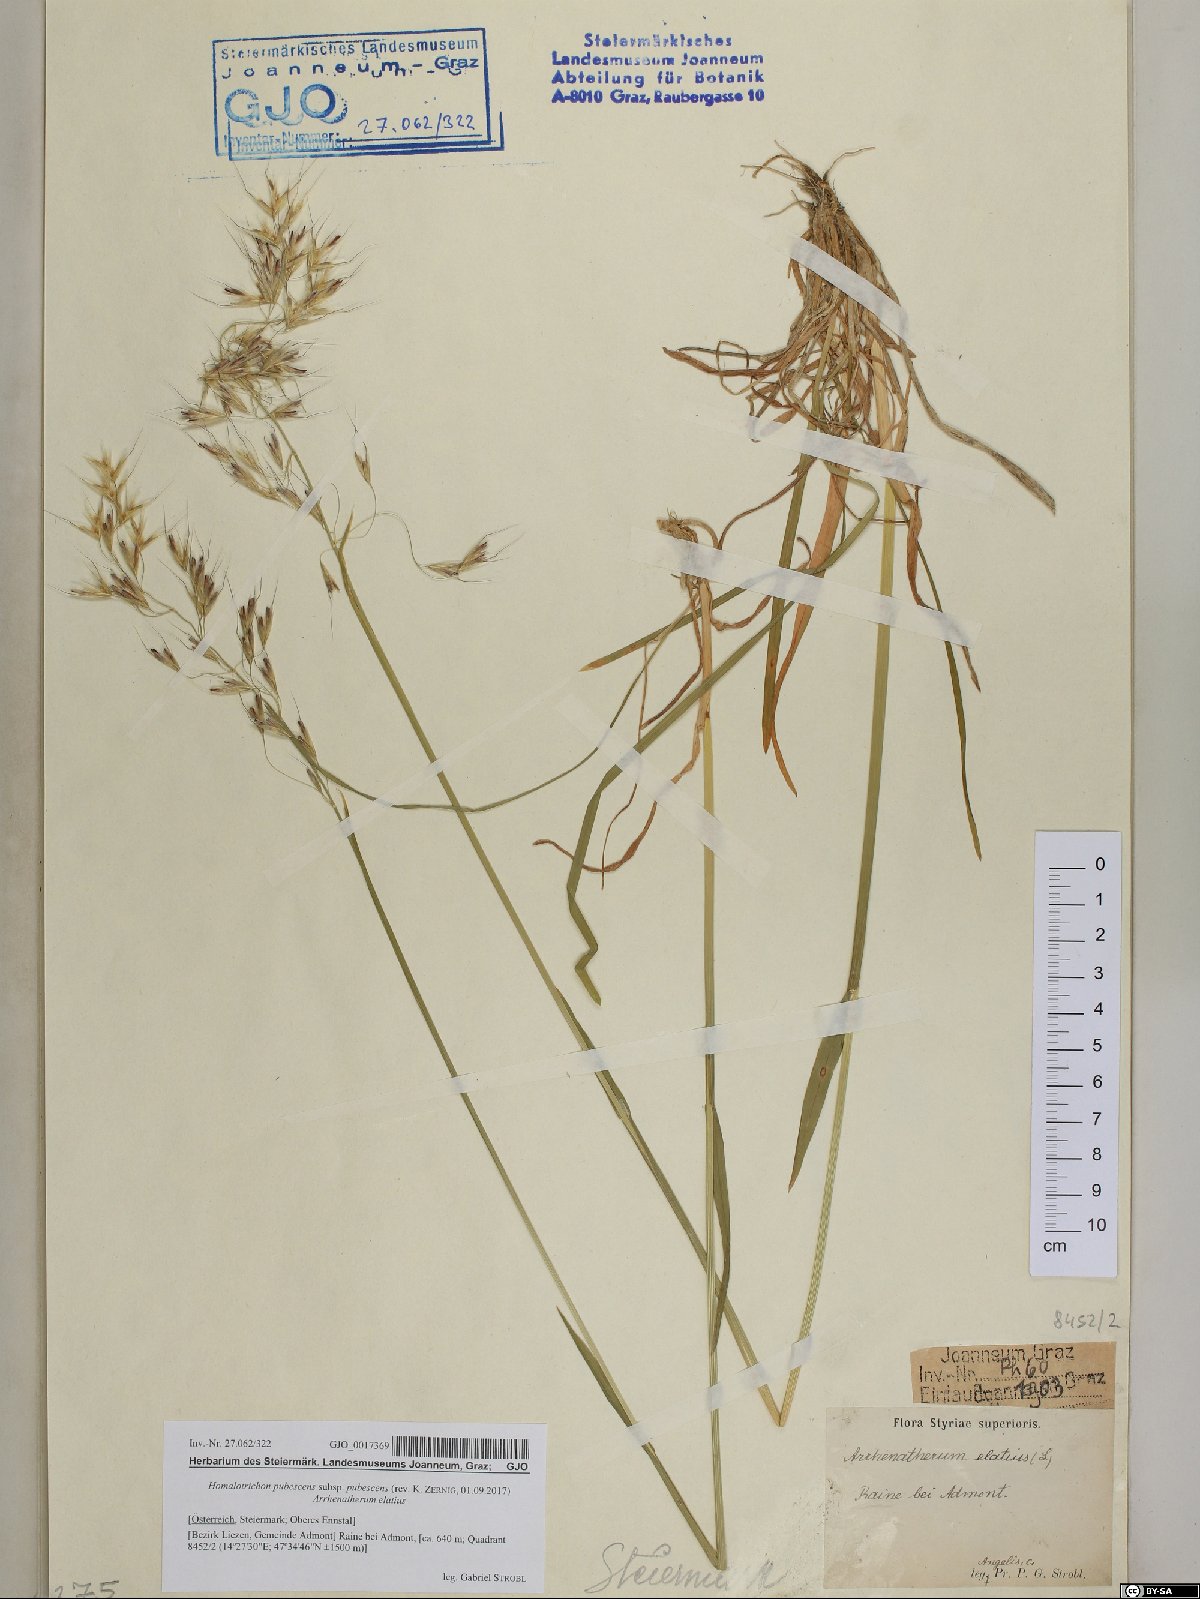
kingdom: Plantae
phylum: Tracheophyta
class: Liliopsida
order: Poales
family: Poaceae
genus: Avenula
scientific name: Avenula pubescens
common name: Downy alpine oatgrass
